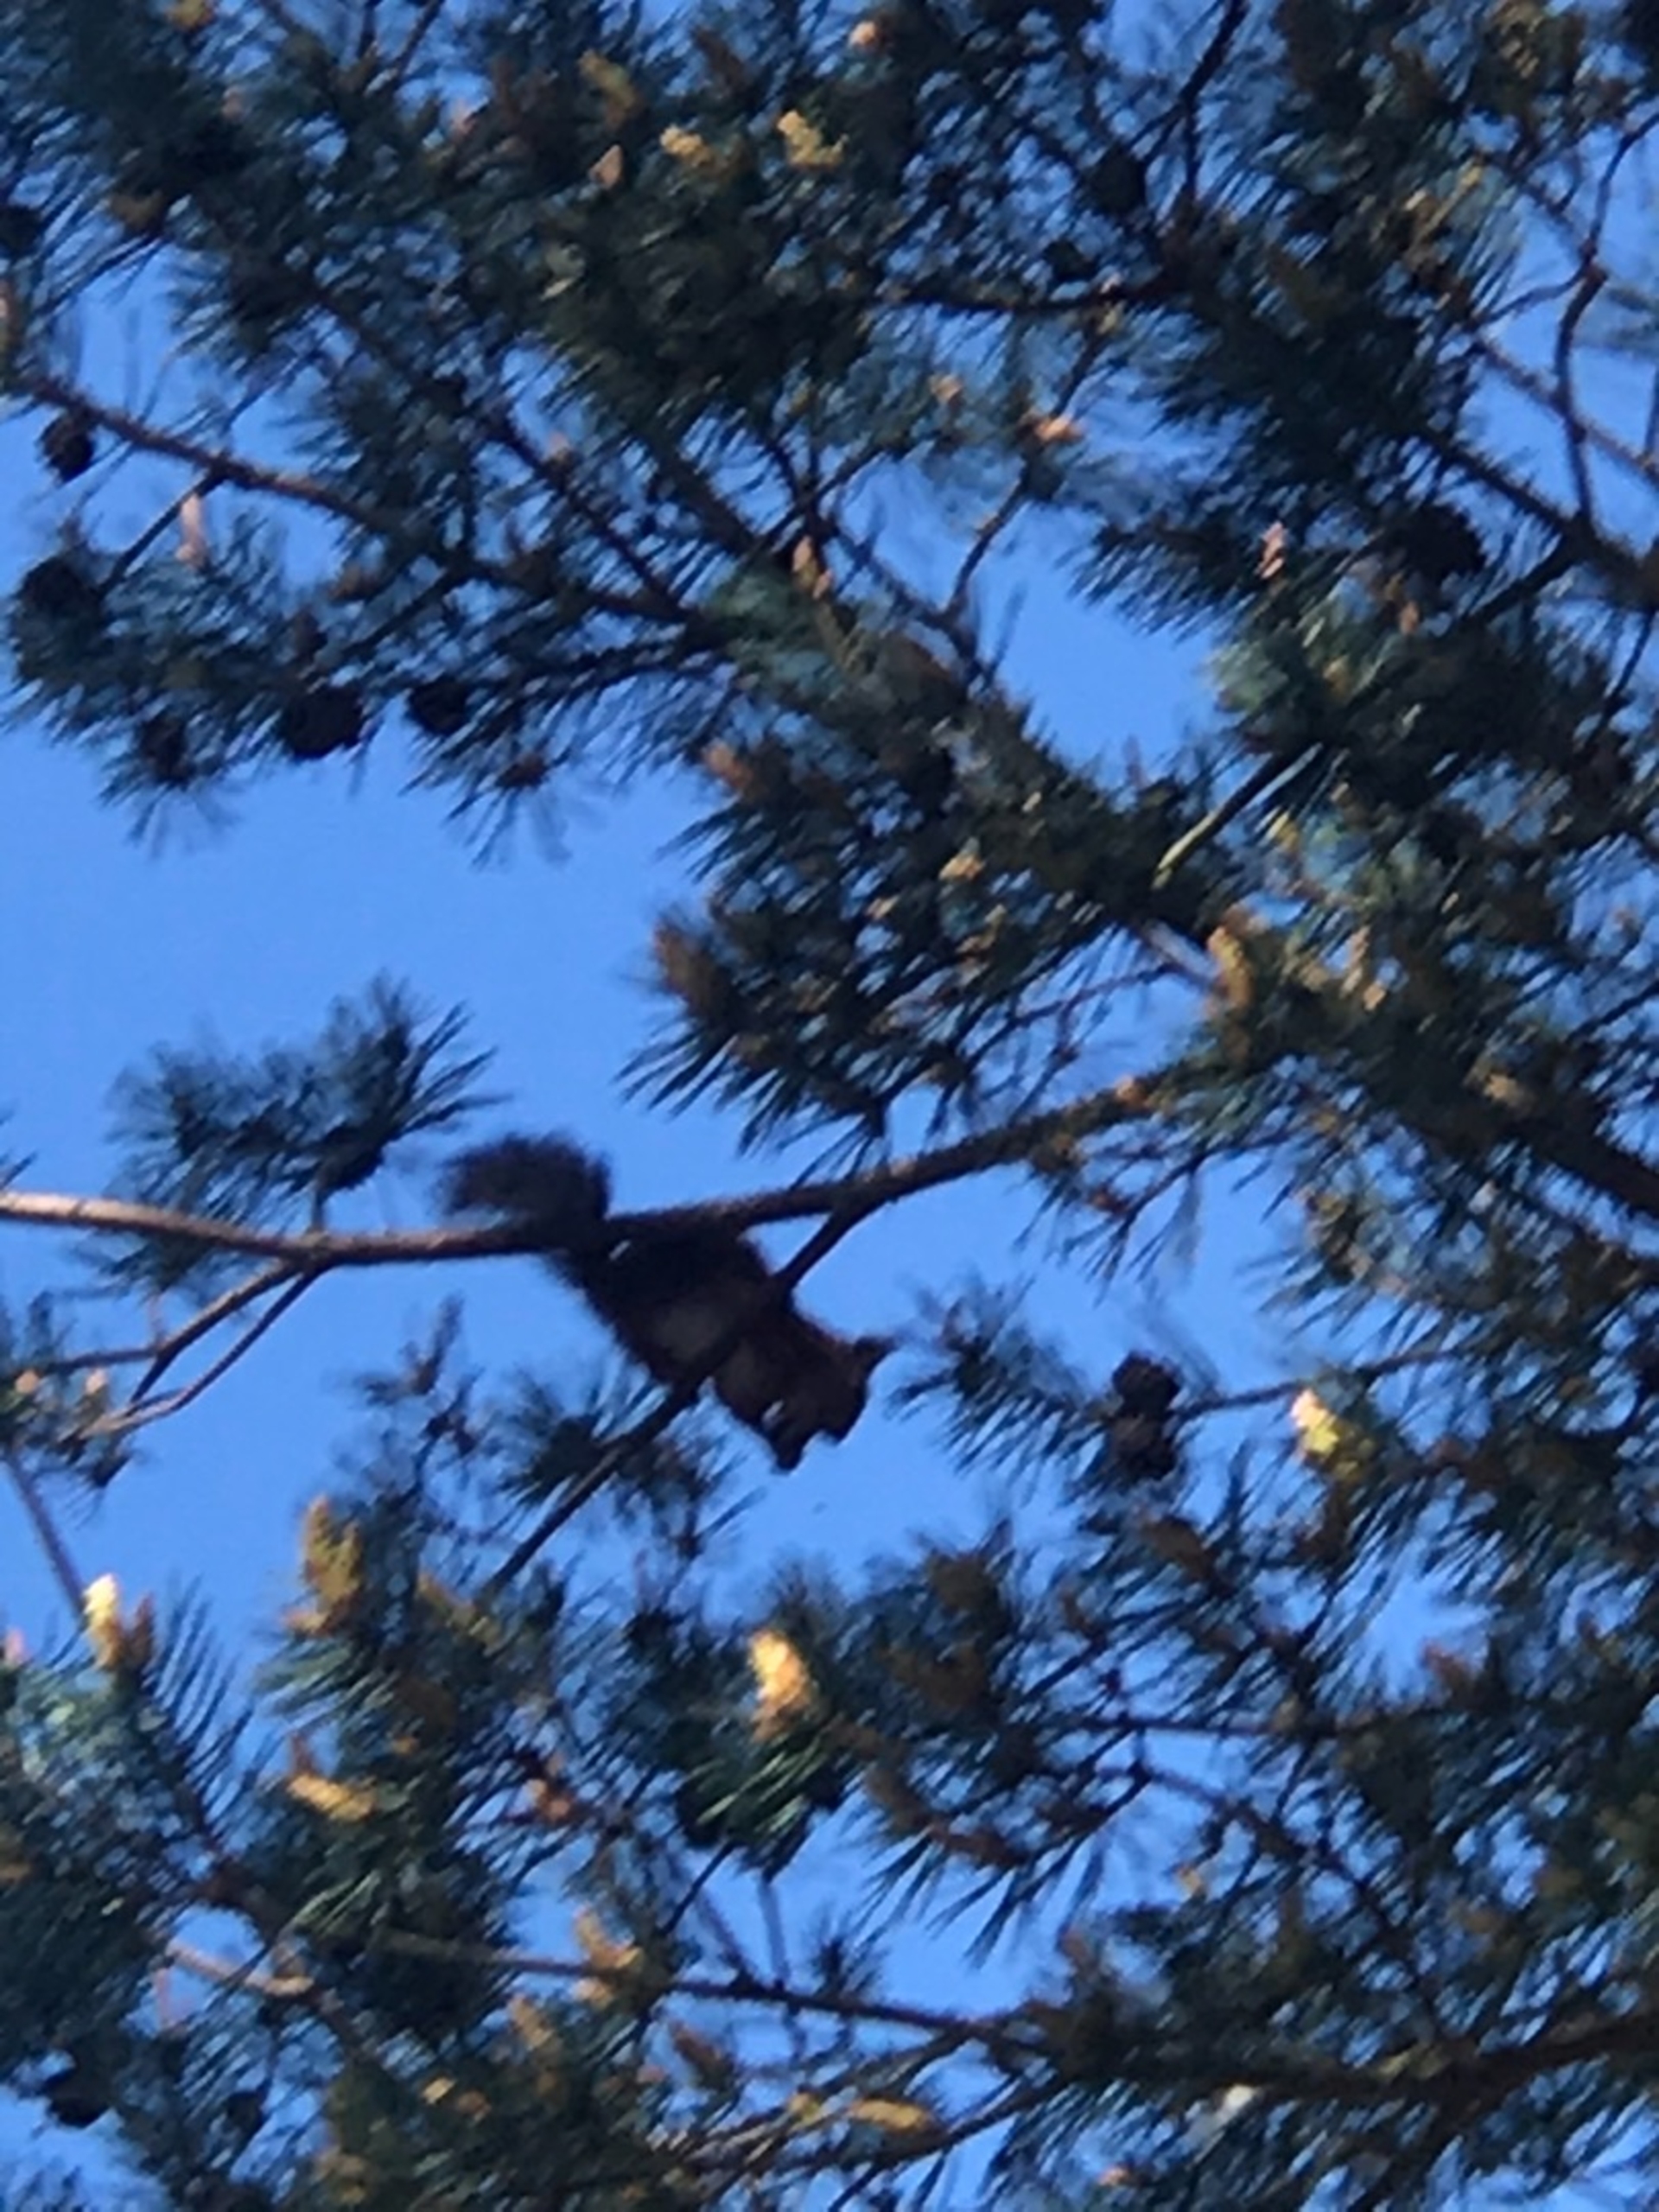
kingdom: Animalia
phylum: Chordata
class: Mammalia
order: Rodentia
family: Sciuridae
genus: Sciurus
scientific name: Sciurus vulgaris
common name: Egern
